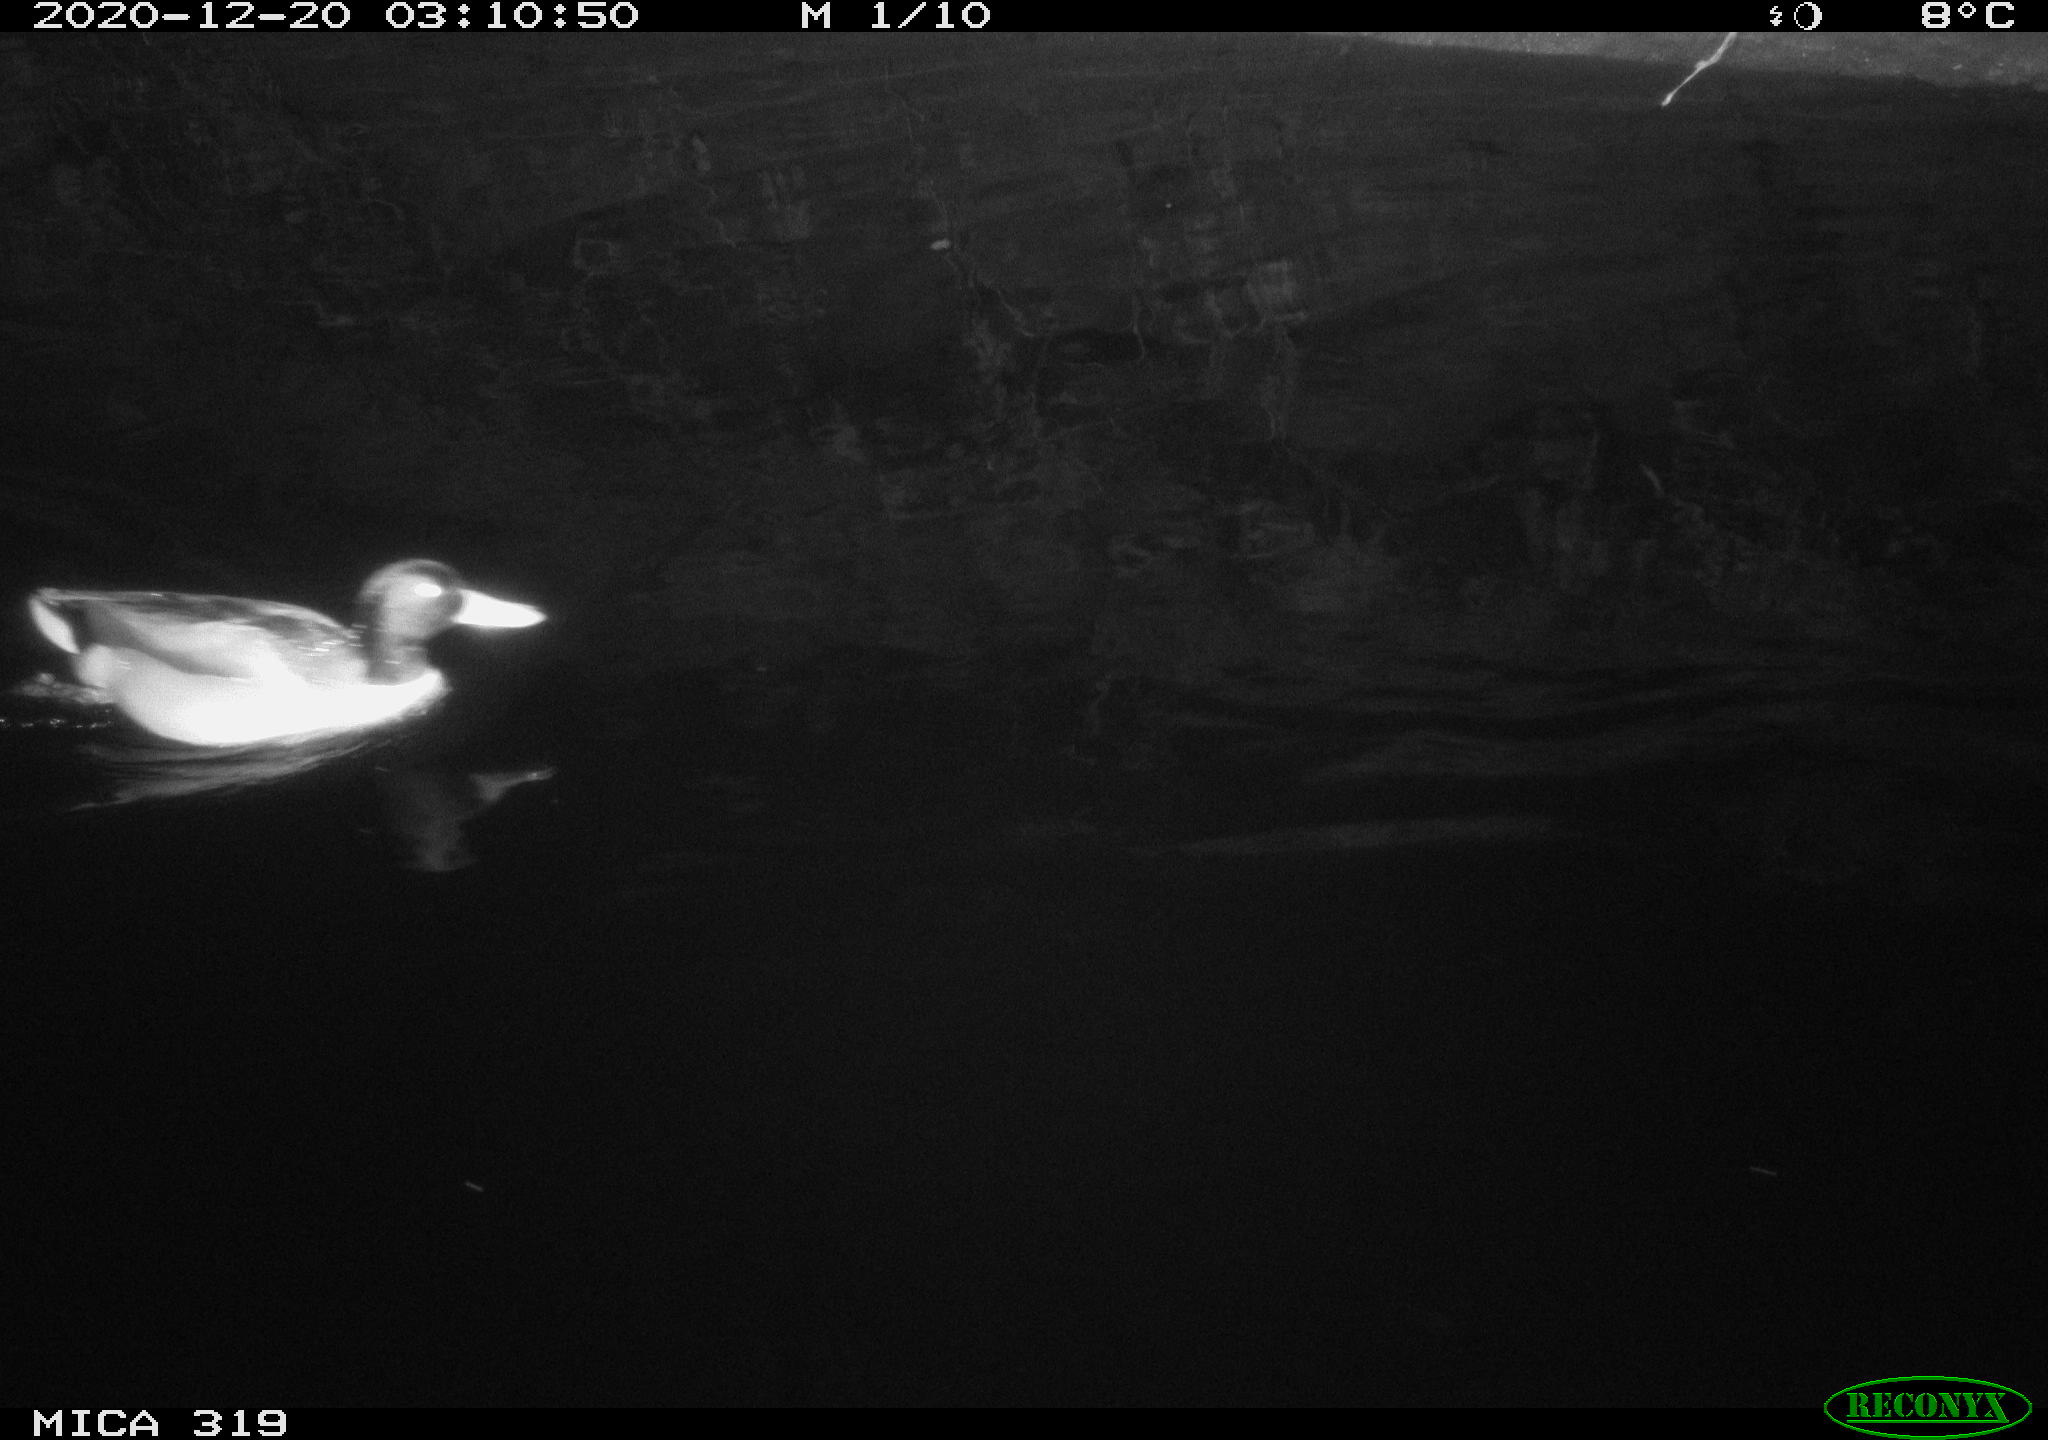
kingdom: Animalia
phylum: Chordata
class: Aves
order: Anseriformes
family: Anatidae
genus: Anas
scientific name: Anas platyrhynchos
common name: Mallard
